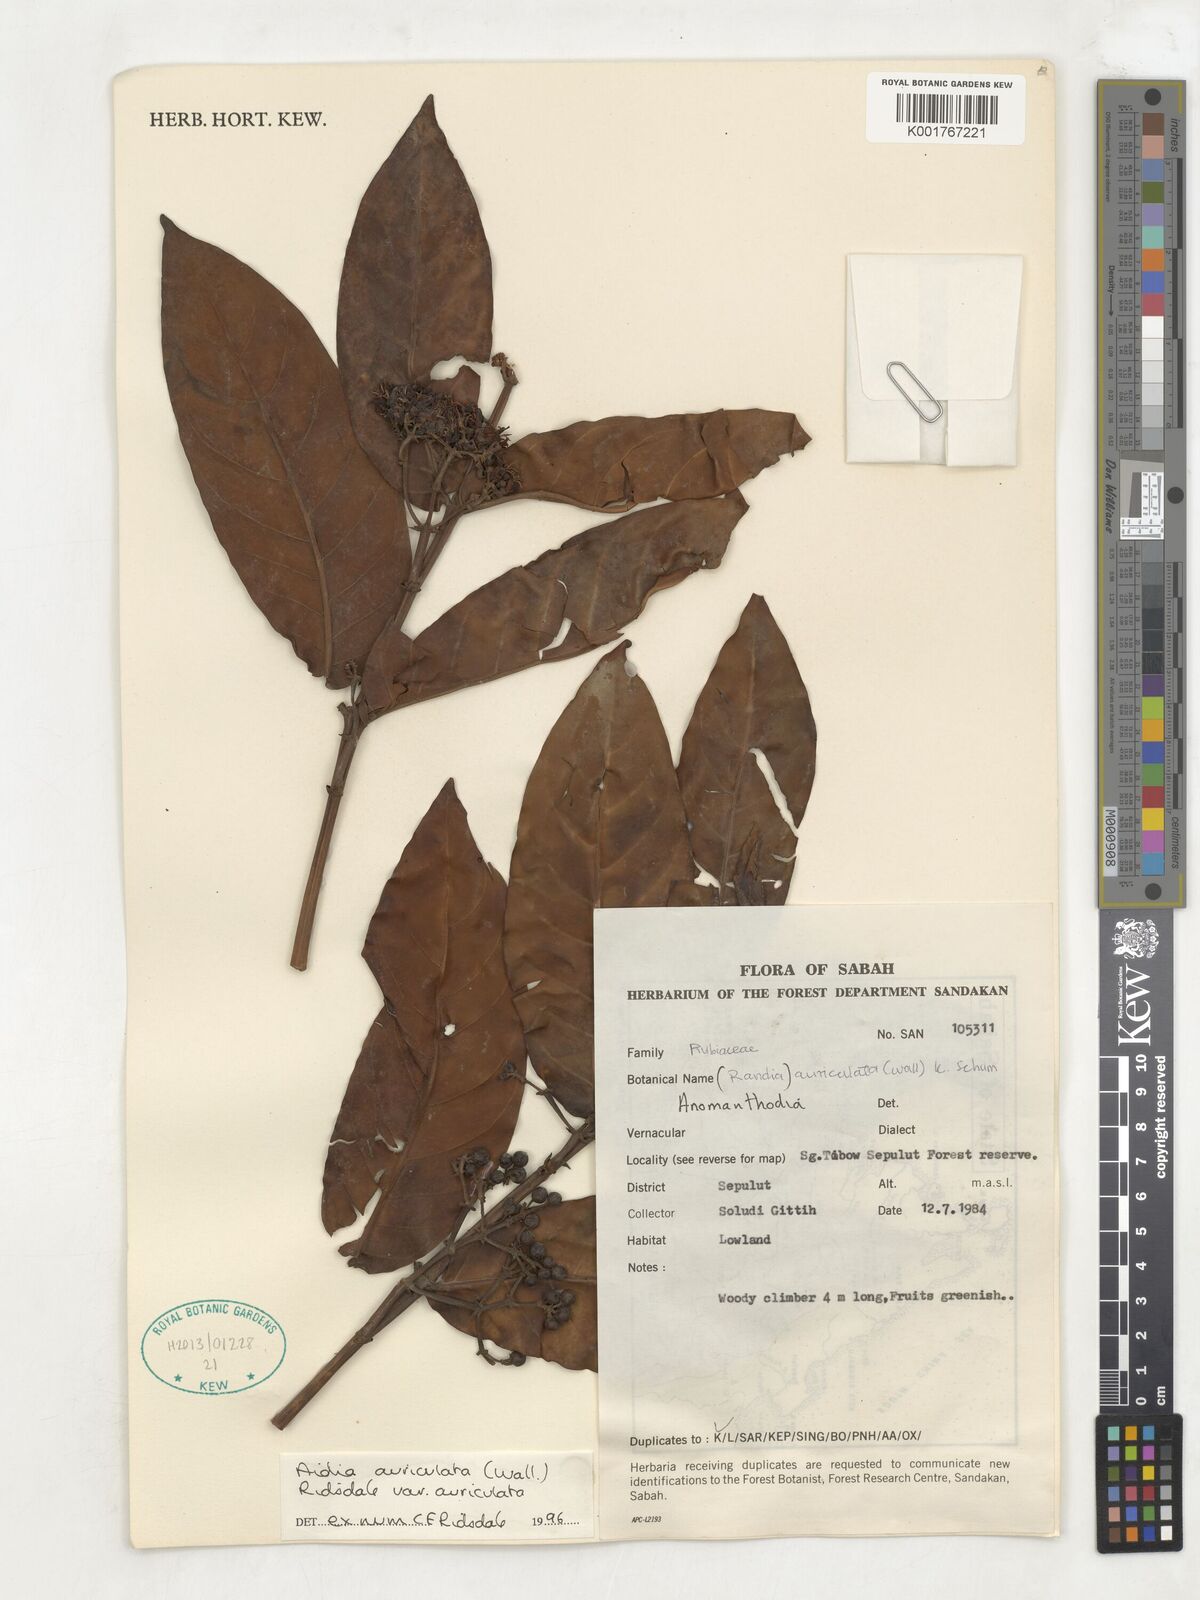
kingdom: Plantae
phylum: Tracheophyta
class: Magnoliopsida
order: Gentianales
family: Rubiaceae
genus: Aidia
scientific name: Aidia auriculata
